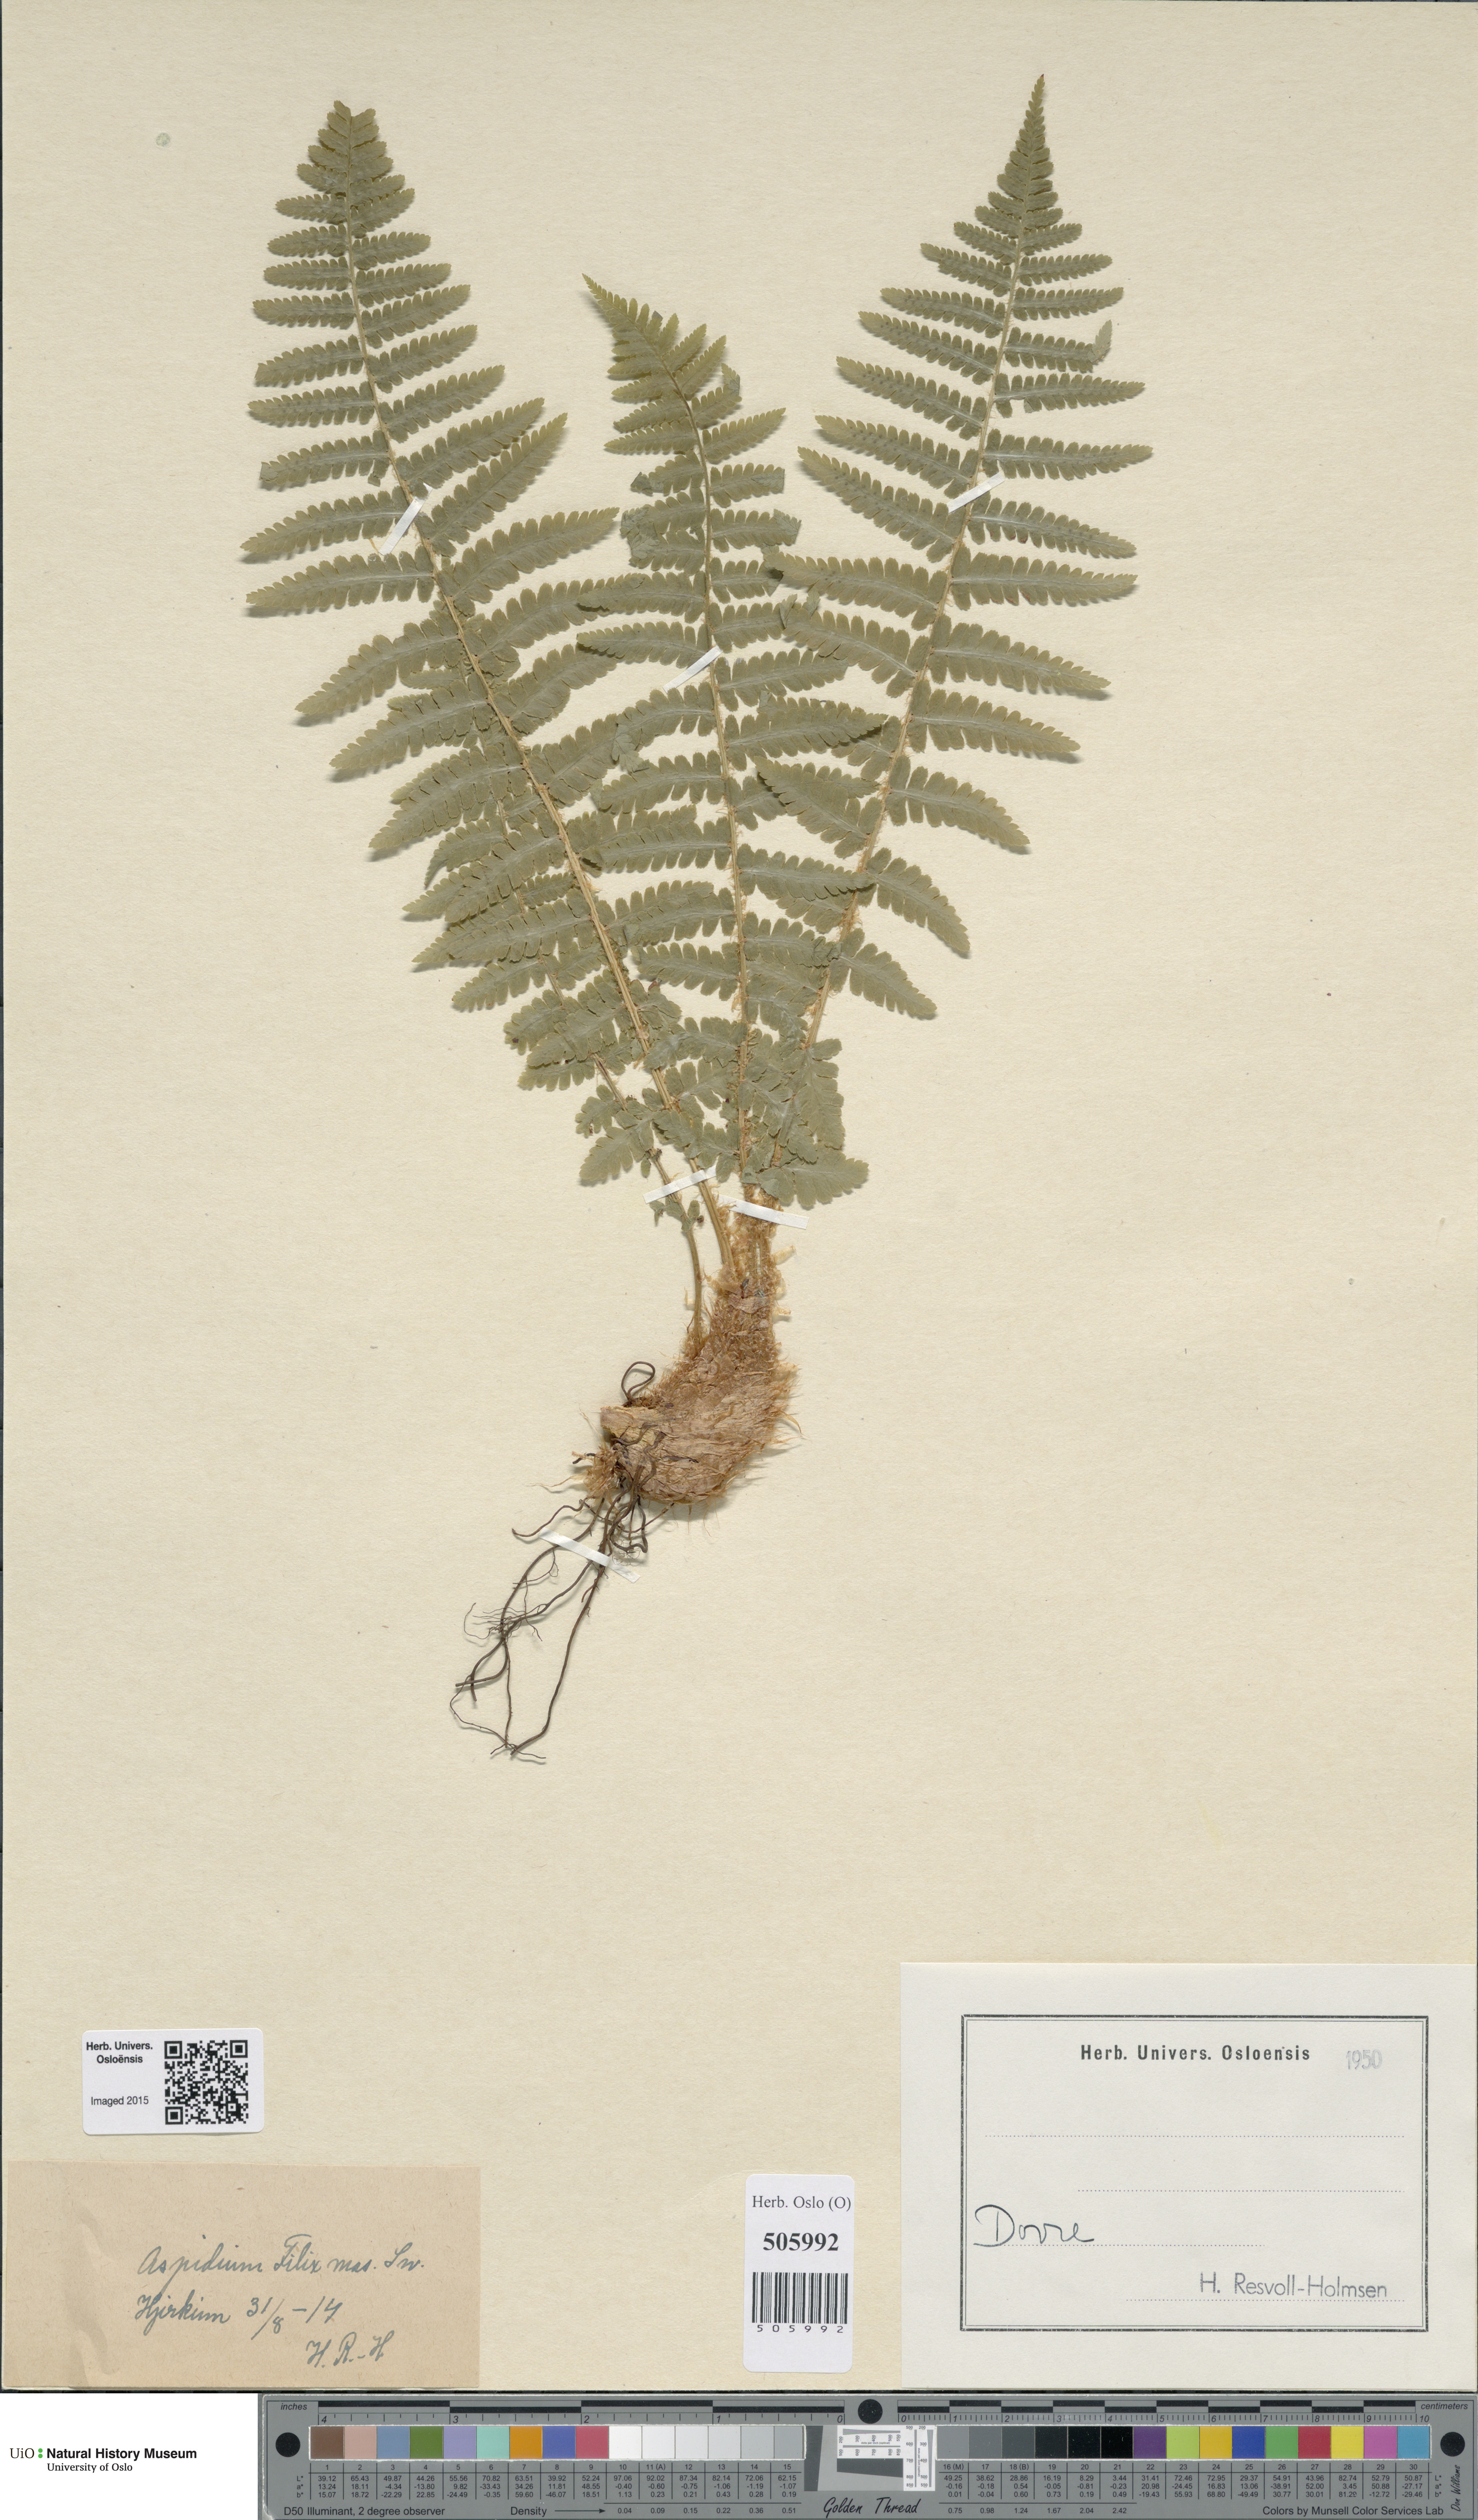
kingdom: Plantae
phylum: Tracheophyta
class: Polypodiopsida
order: Polypodiales
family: Dryopteridaceae
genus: Dryopteris
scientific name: Dryopteris filix-mas
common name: Male fern
